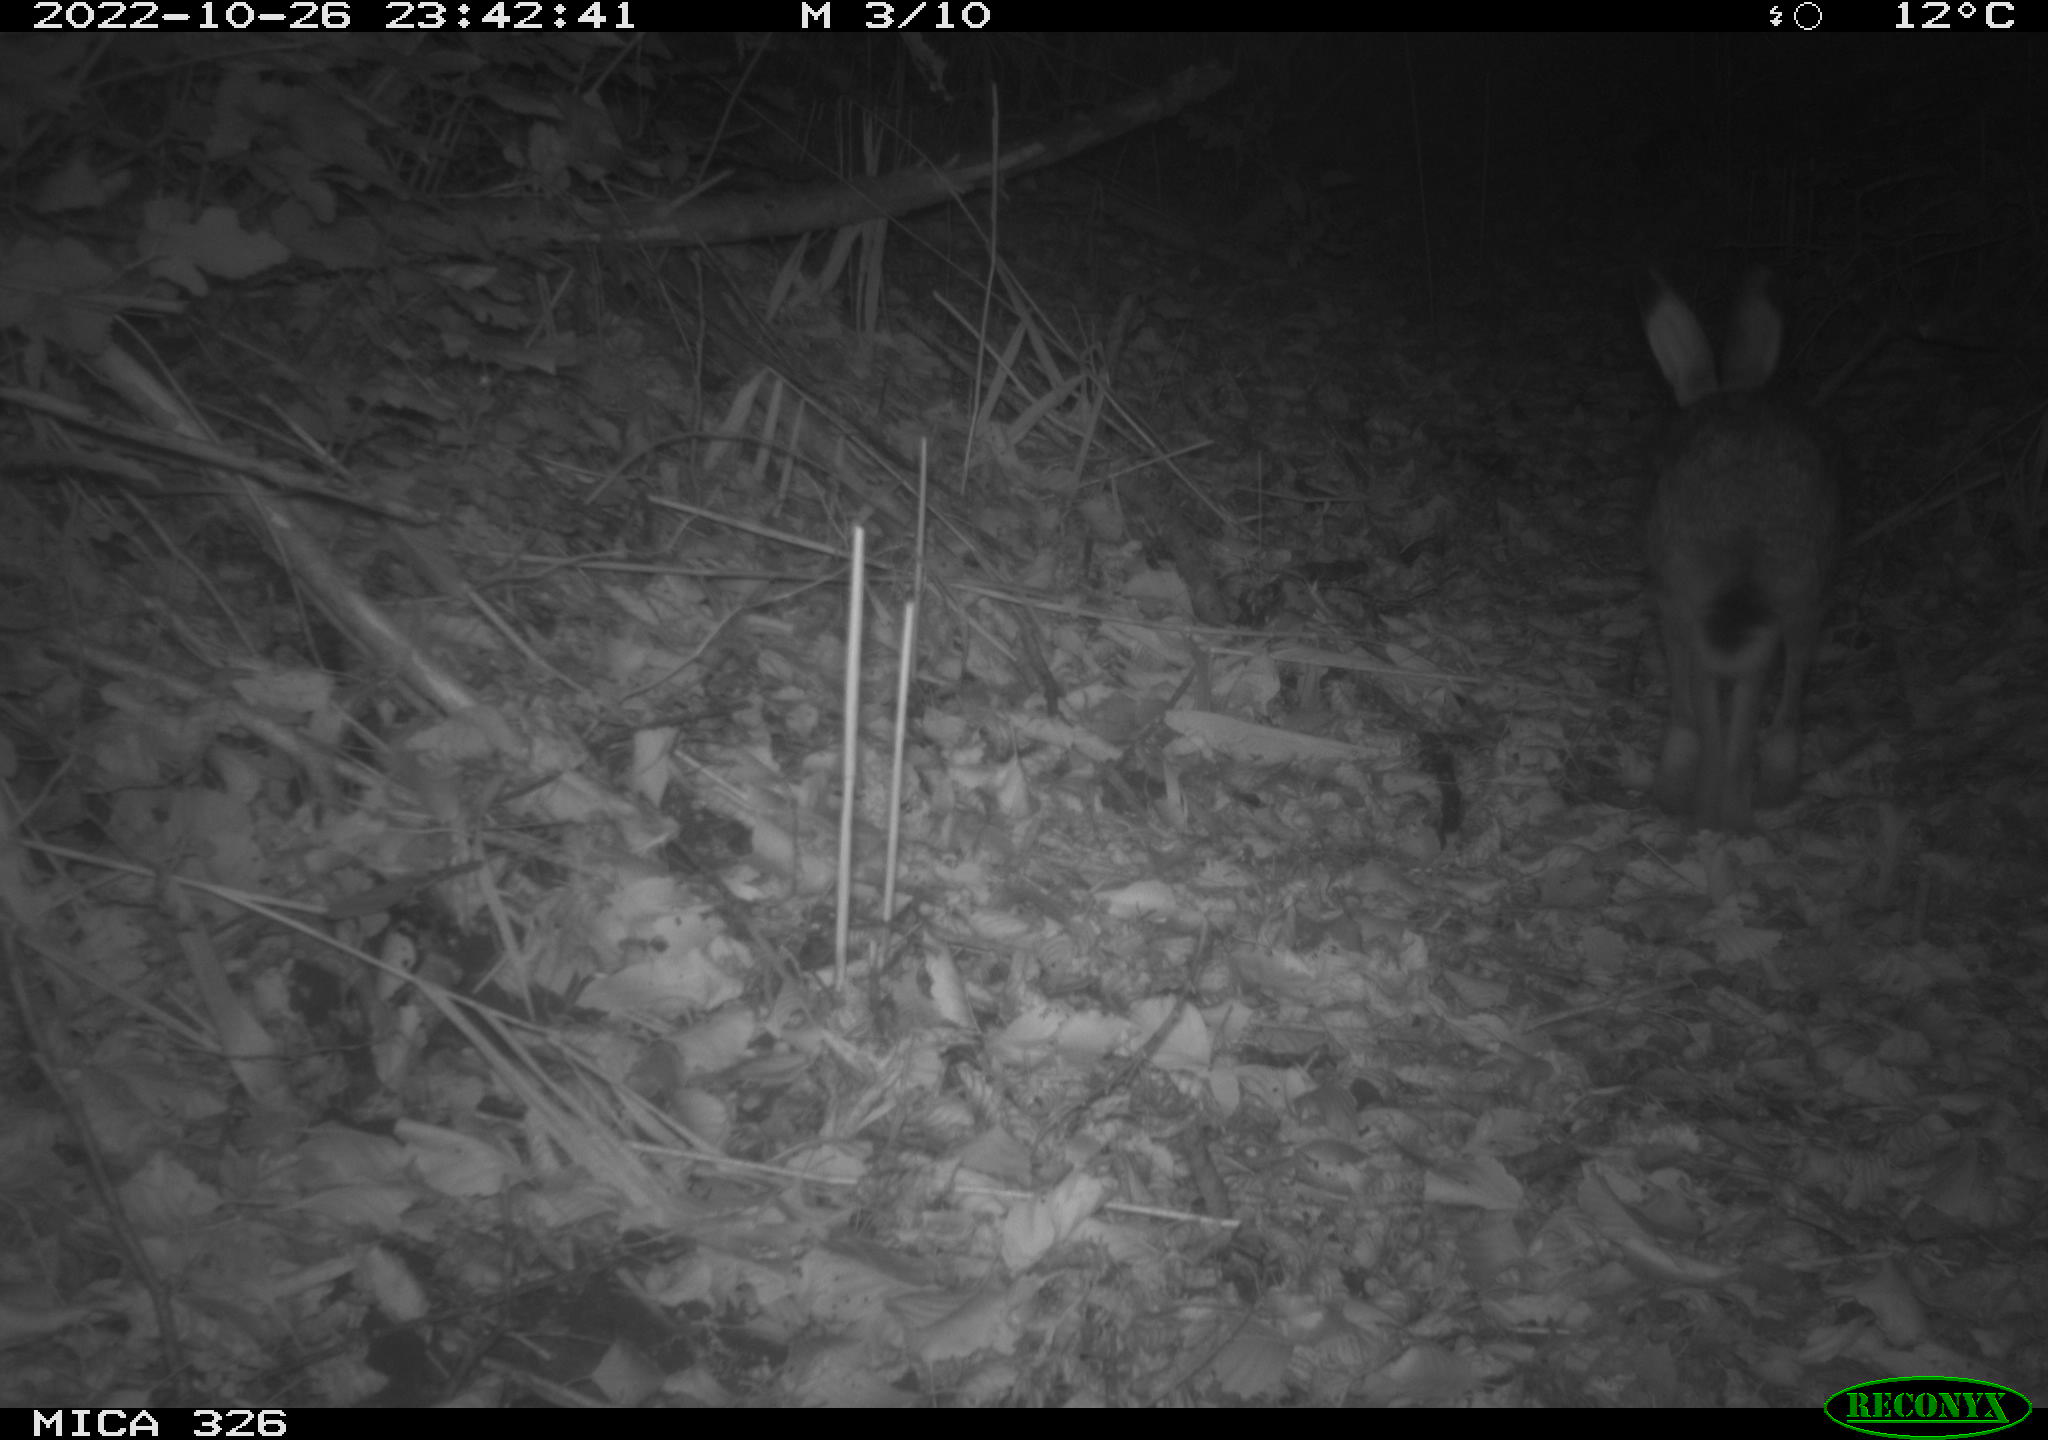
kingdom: Animalia
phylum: Chordata
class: Mammalia
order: Lagomorpha
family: Leporidae
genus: Lepus
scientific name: Lepus europaeus
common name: European hare
